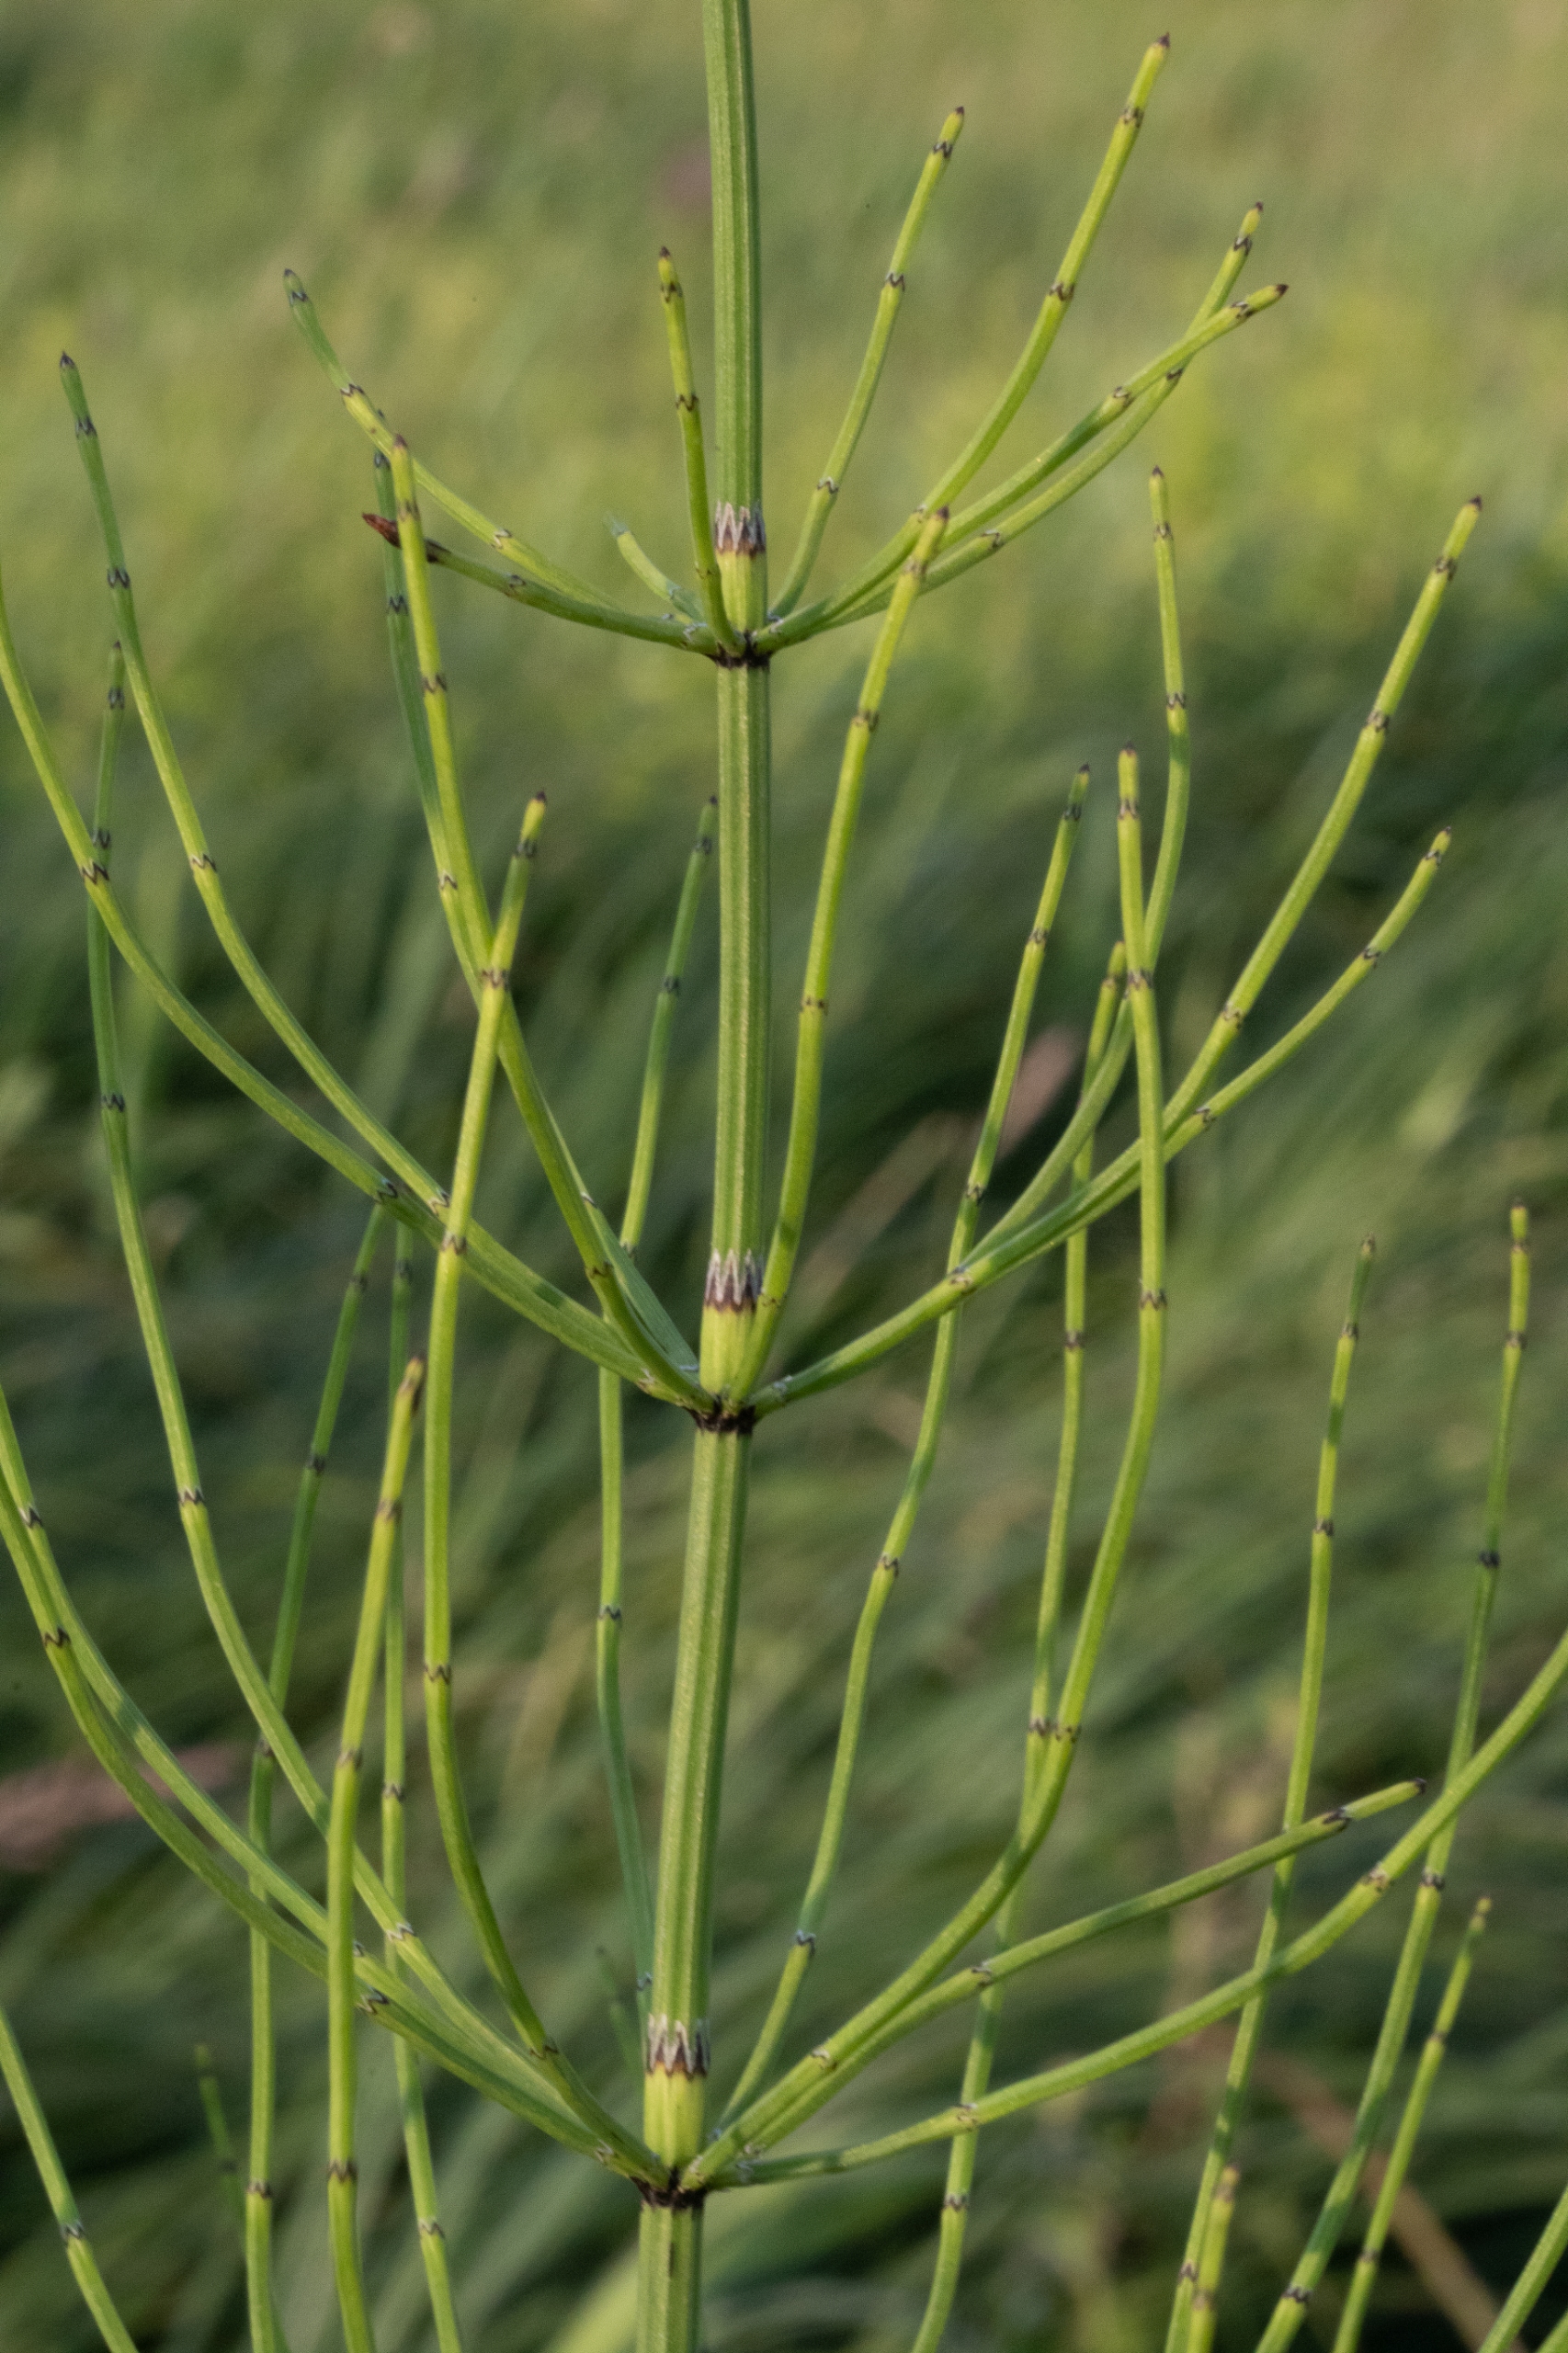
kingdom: Plantae
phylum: Tracheophyta
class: Polypodiopsida
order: Equisetales
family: Equisetaceae
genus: Equisetum
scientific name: Equisetum palustre
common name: Kær-padderok
